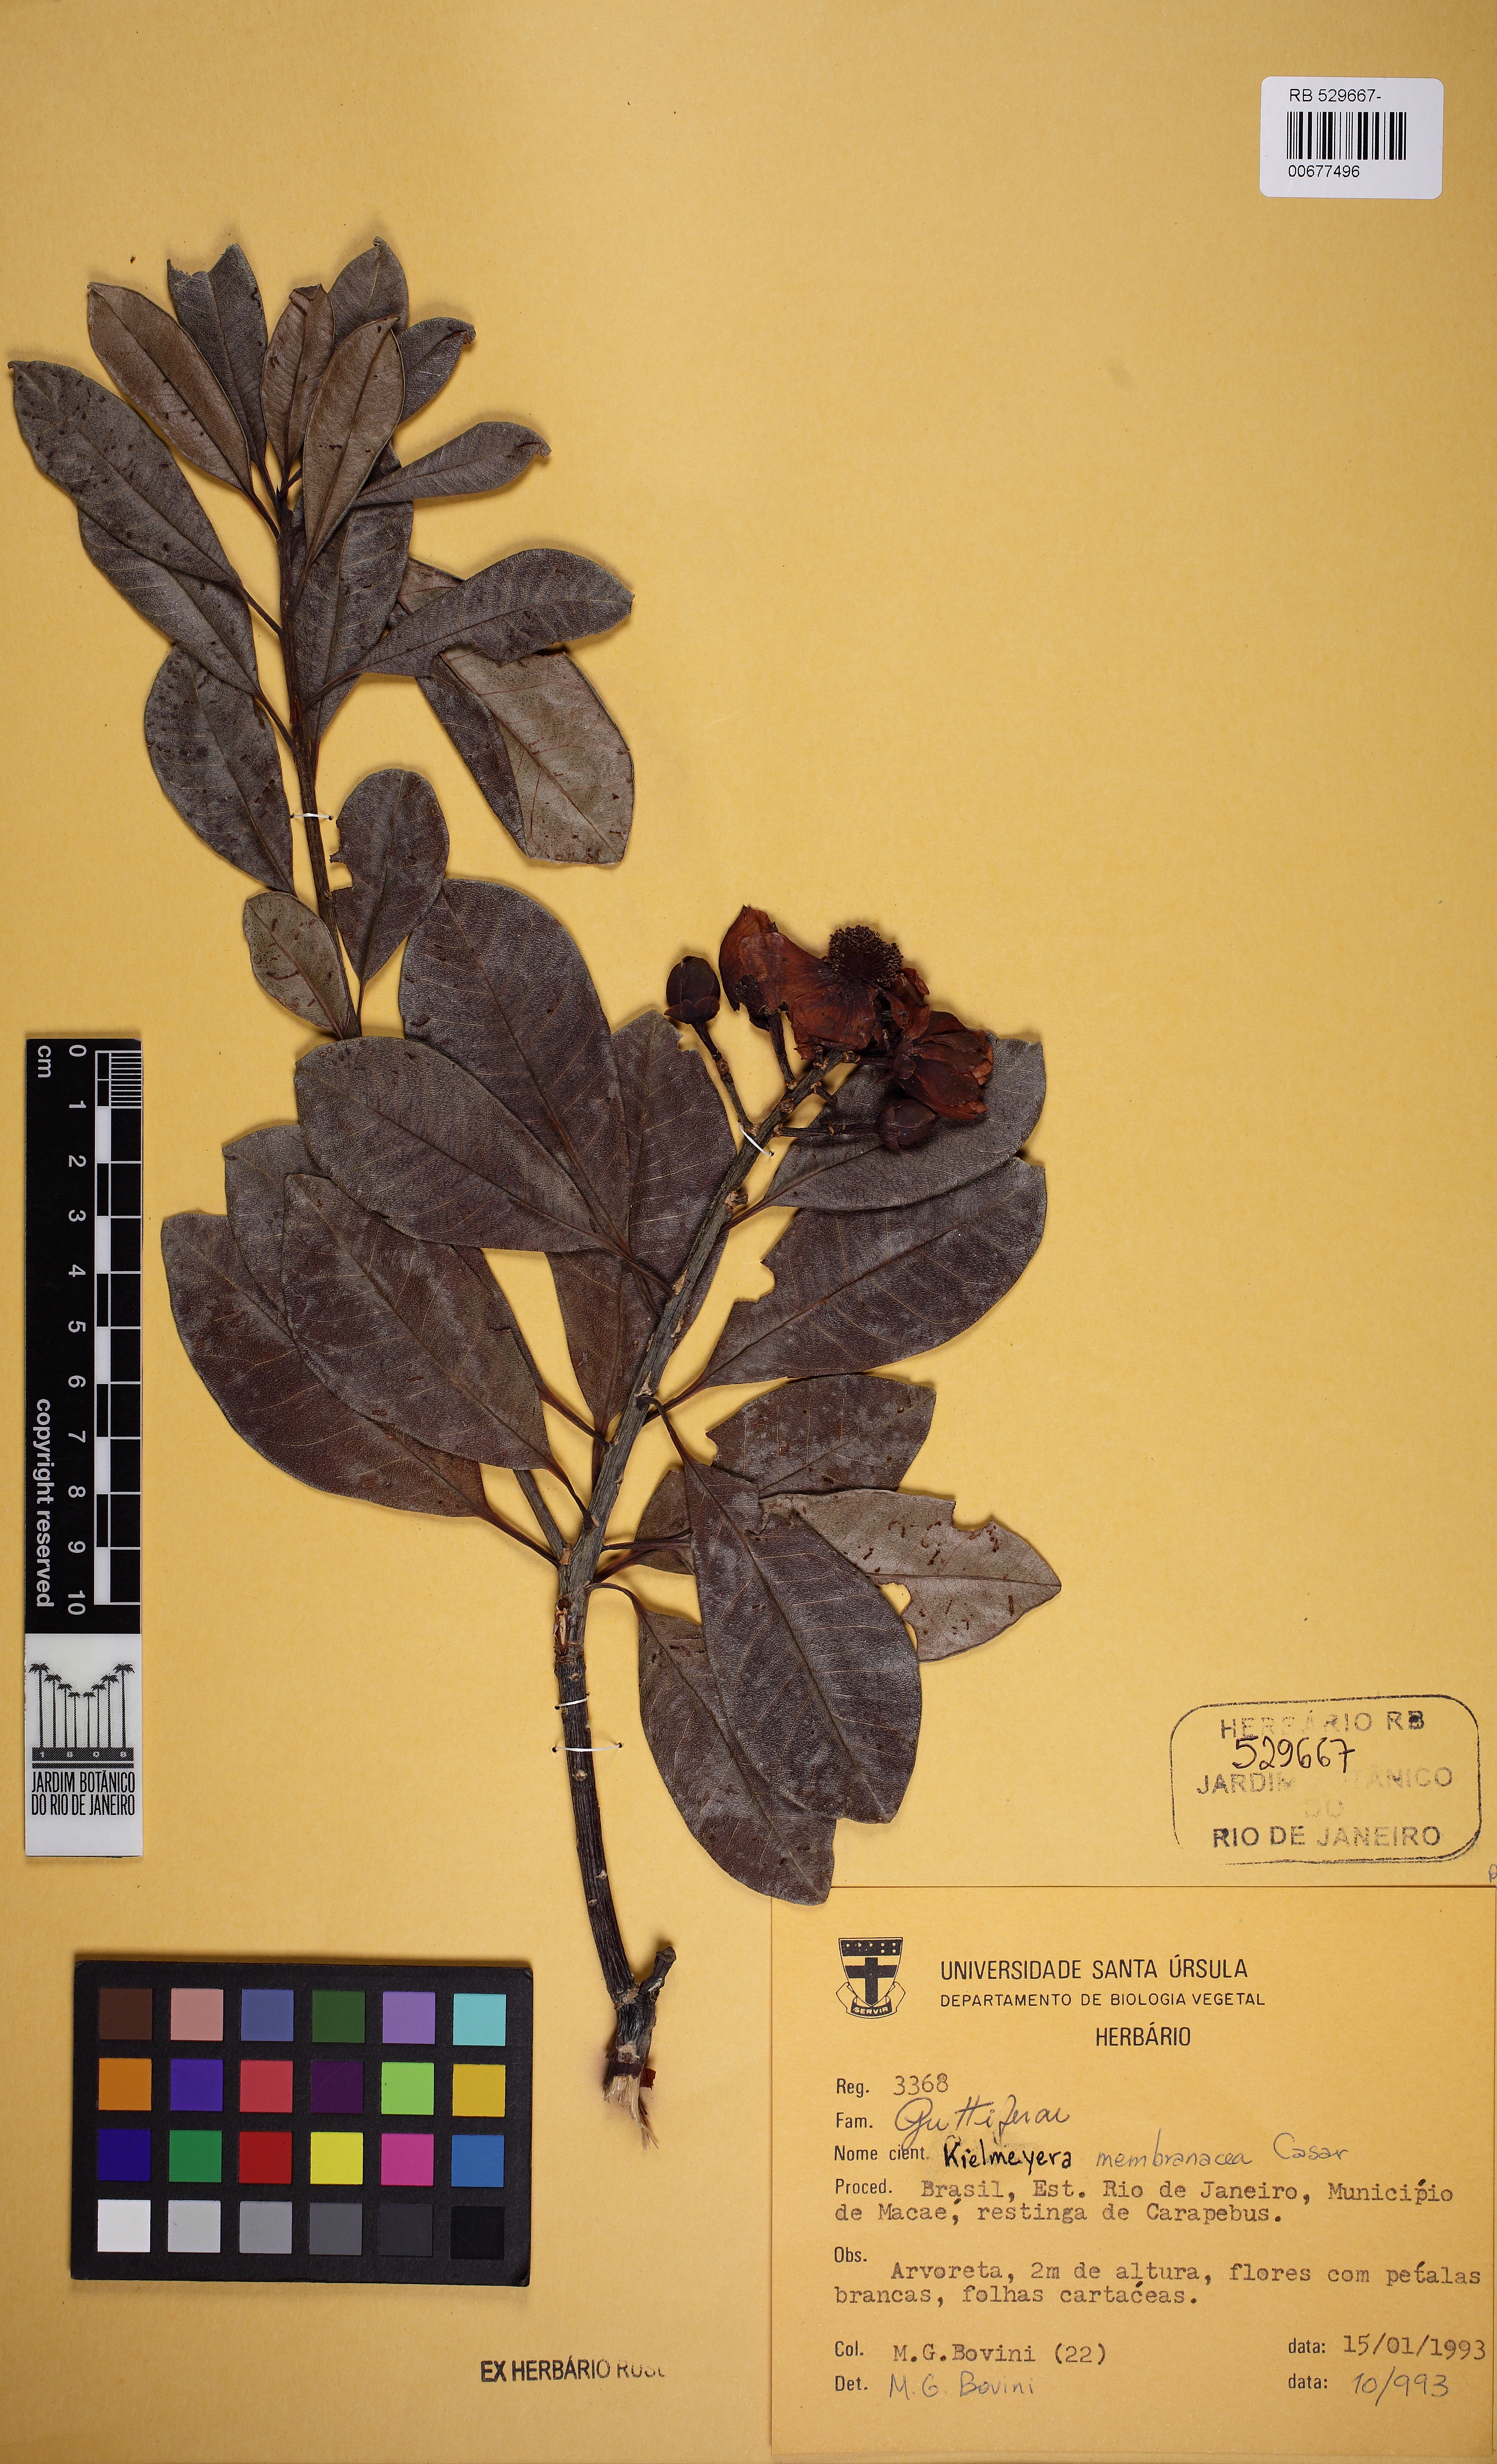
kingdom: Plantae
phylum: Tracheophyta
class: Magnoliopsida
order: Malpighiales
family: Calophyllaceae
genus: Kielmeyera
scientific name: Kielmeyera membranacea
